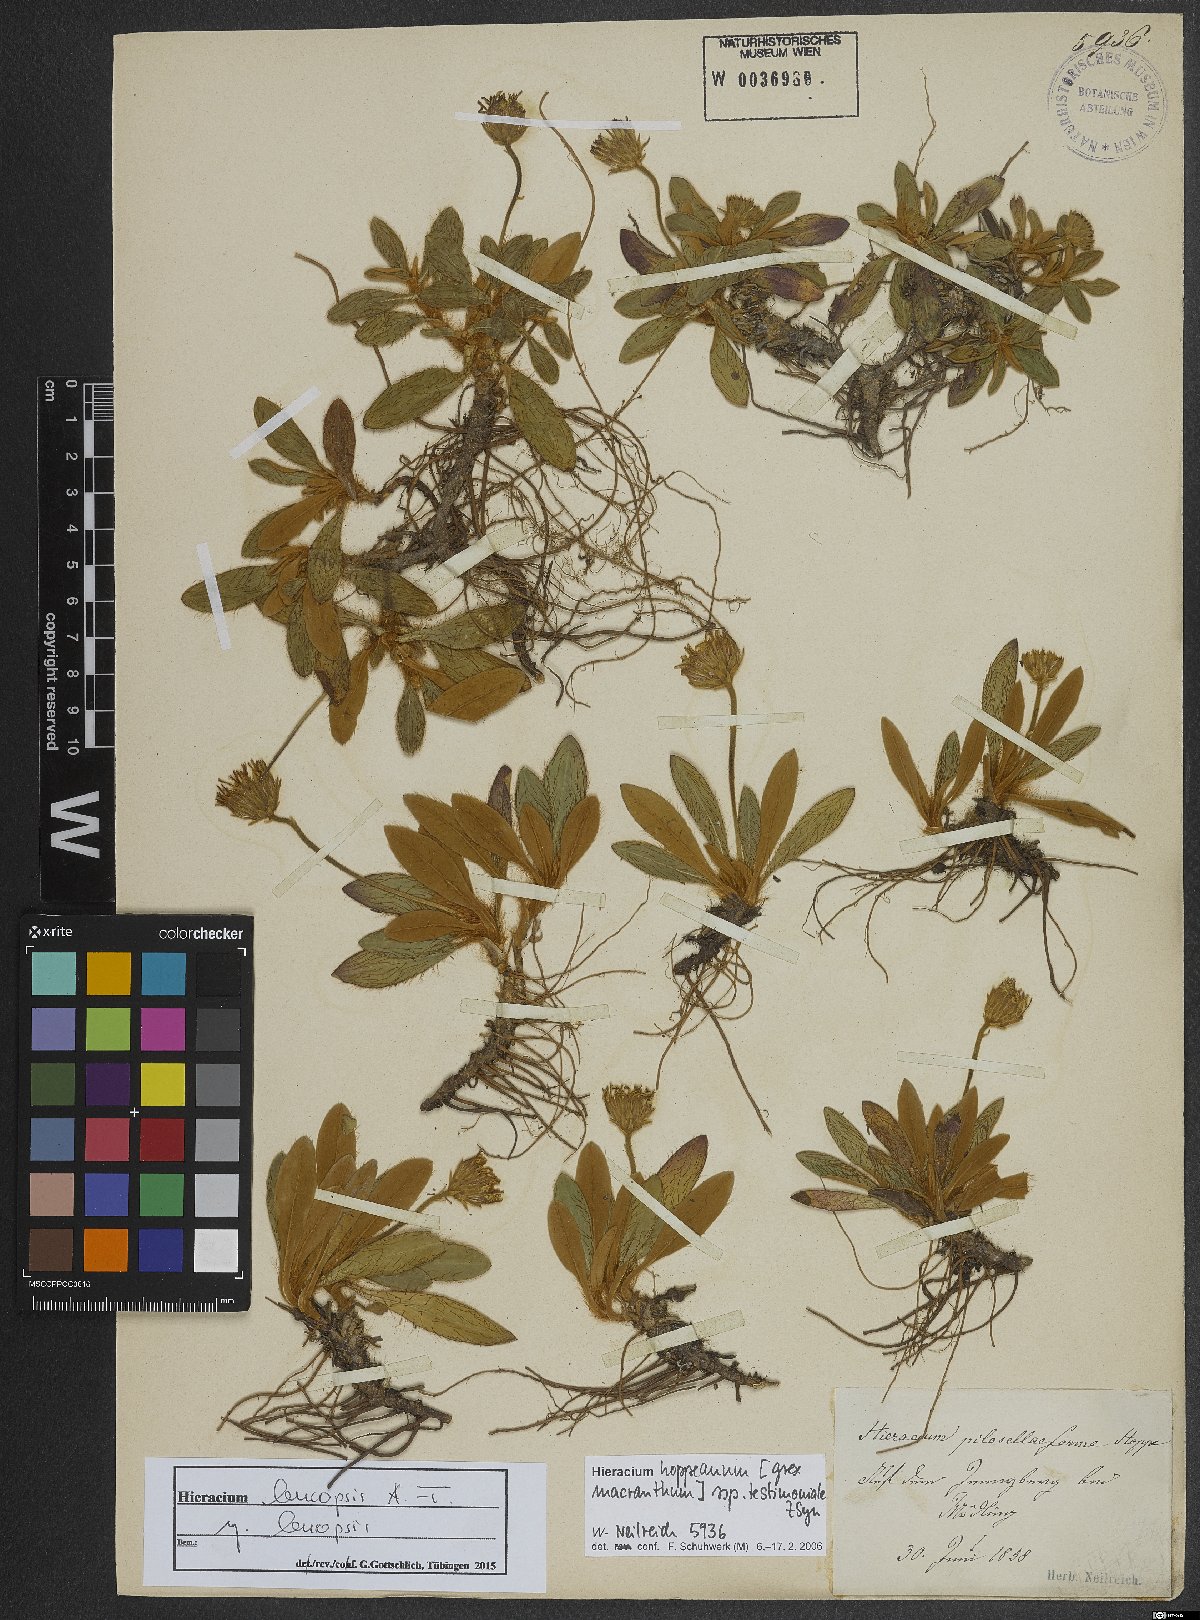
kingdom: Plantae
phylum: Tracheophyta
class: Magnoliopsida
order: Asterales
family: Asteraceae
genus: Hieracium
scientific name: Hieracium piliferum
